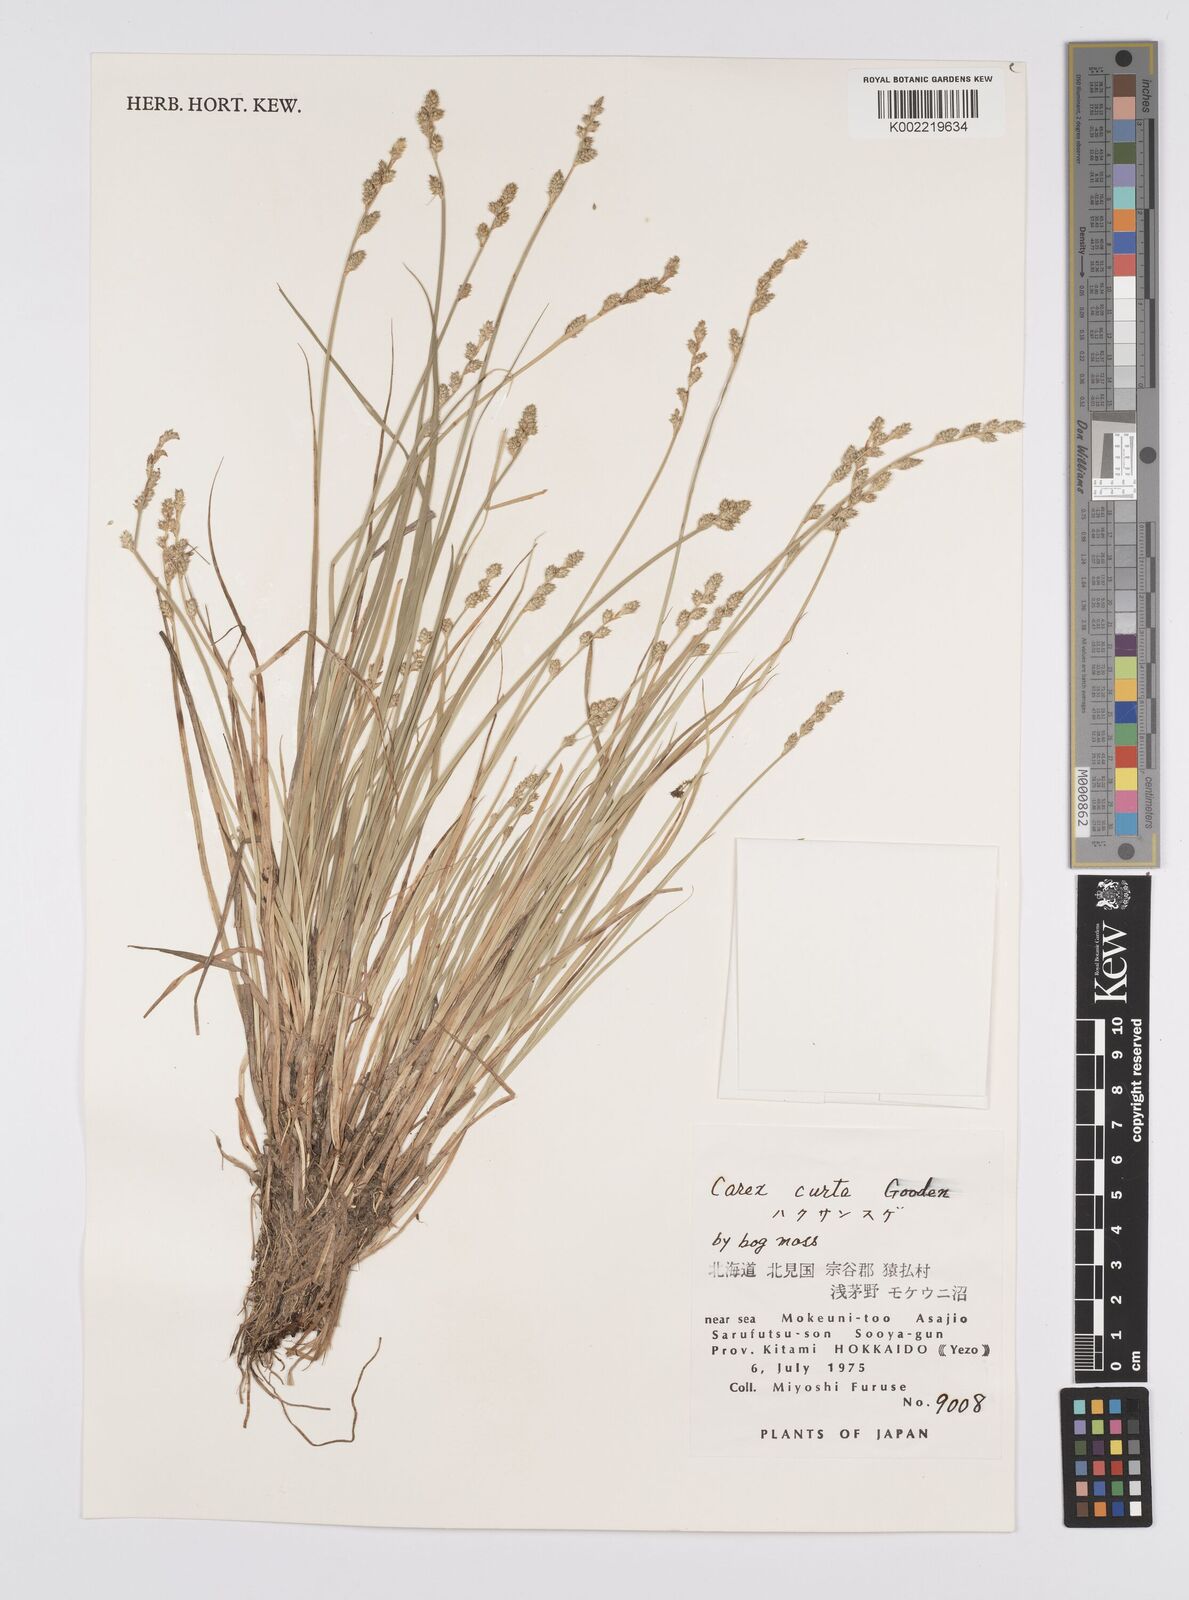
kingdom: Plantae
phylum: Tracheophyta
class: Liliopsida
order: Poales
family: Cyperaceae
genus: Carex
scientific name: Carex canescens
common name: White sedge
